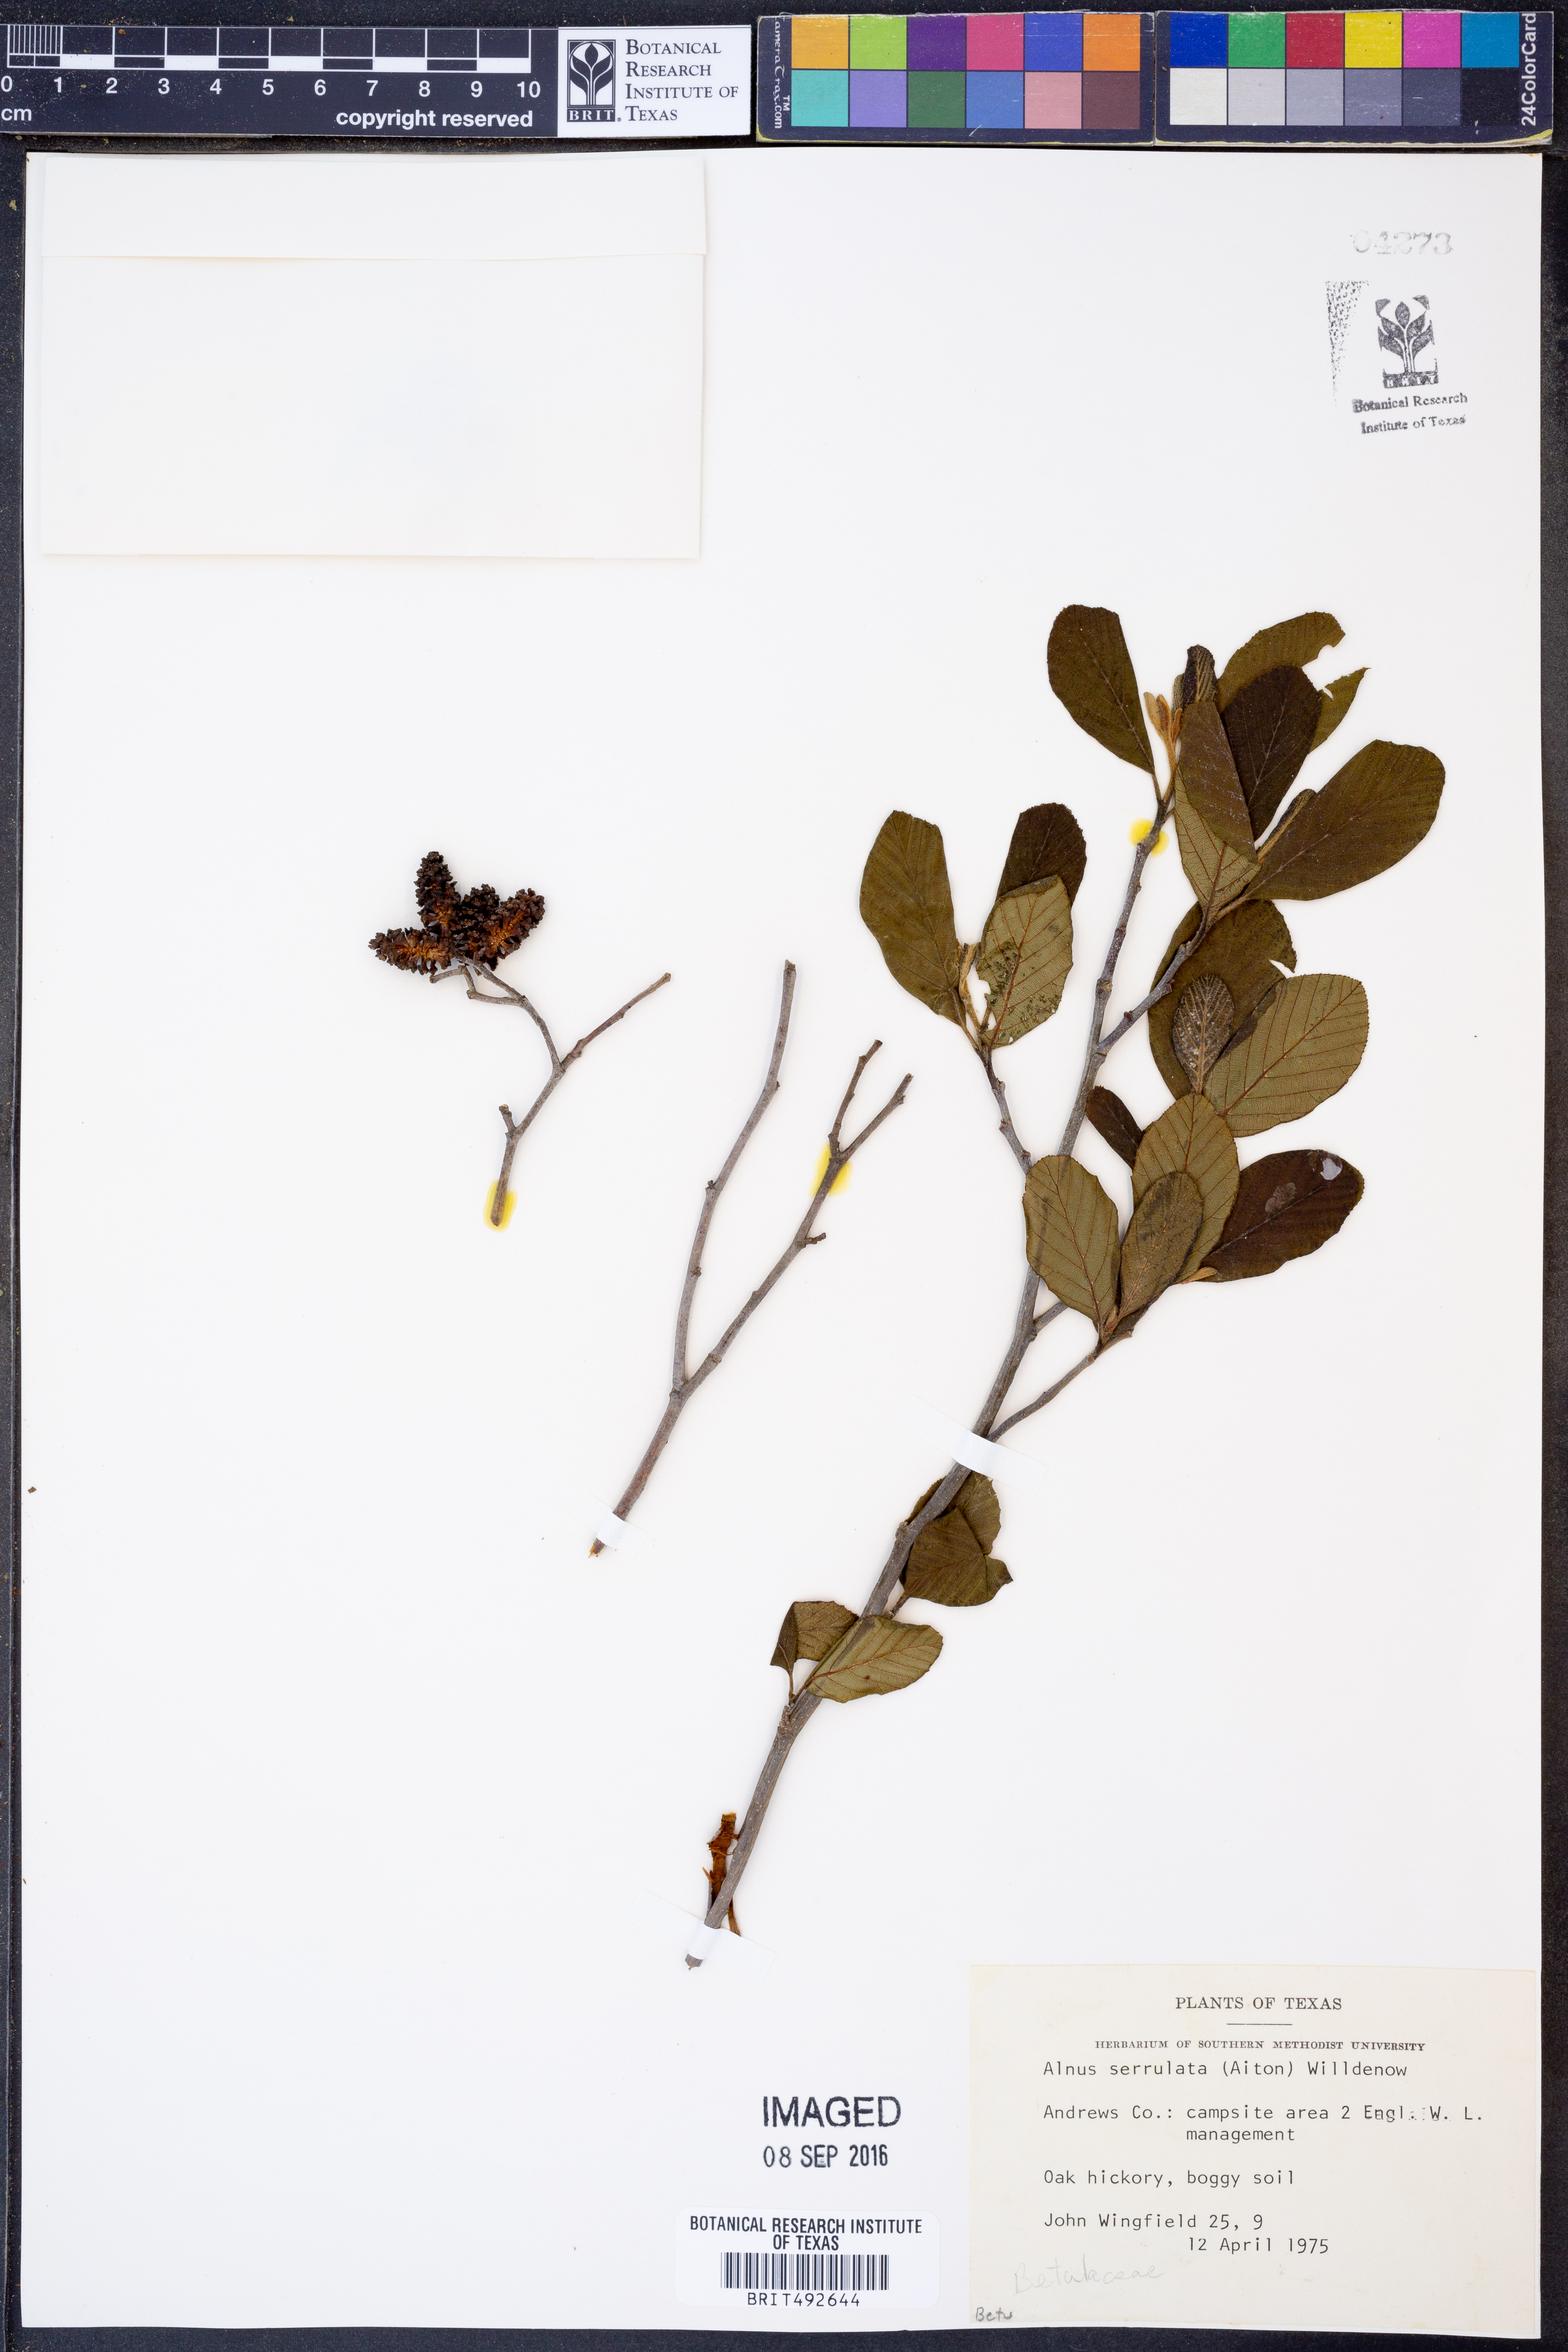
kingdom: Plantae
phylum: Tracheophyta
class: Magnoliopsida
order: Fagales
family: Betulaceae
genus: Alnus
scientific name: Alnus serrulata
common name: Hazel alder
